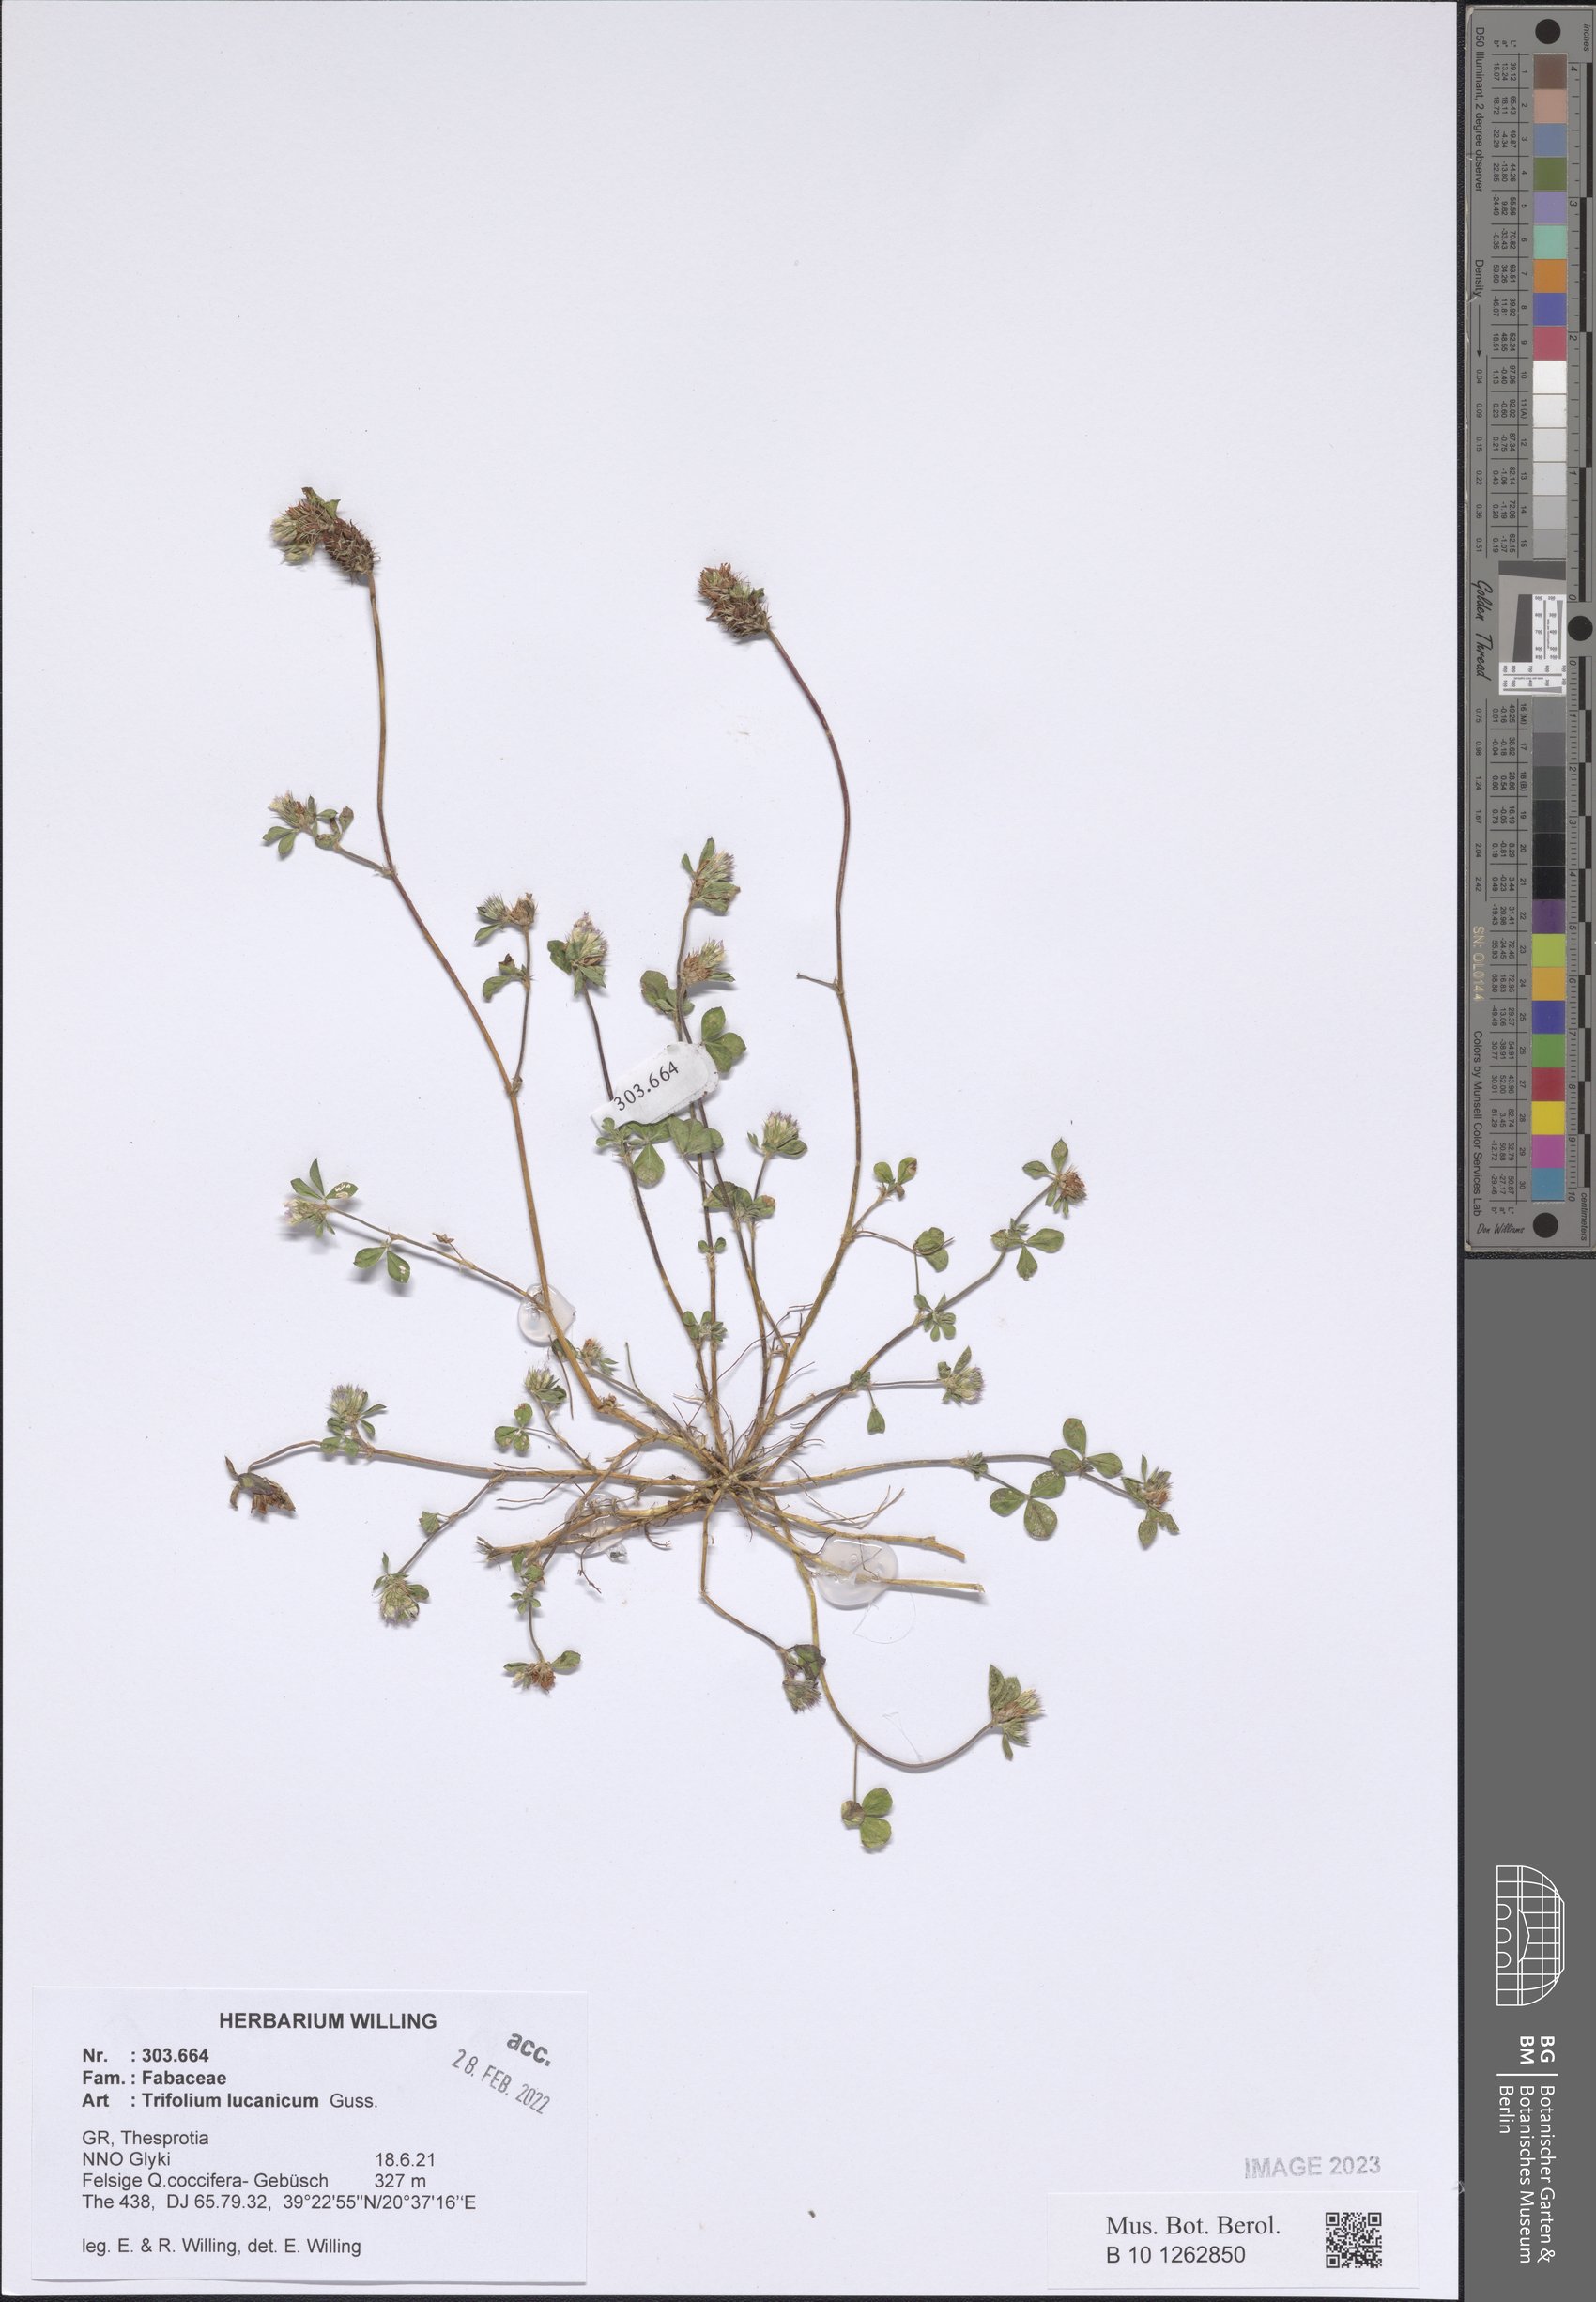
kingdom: Plantae
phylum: Tracheophyta
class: Magnoliopsida
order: Fabales
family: Fabaceae
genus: Trifolium
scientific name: Trifolium lucanicum
